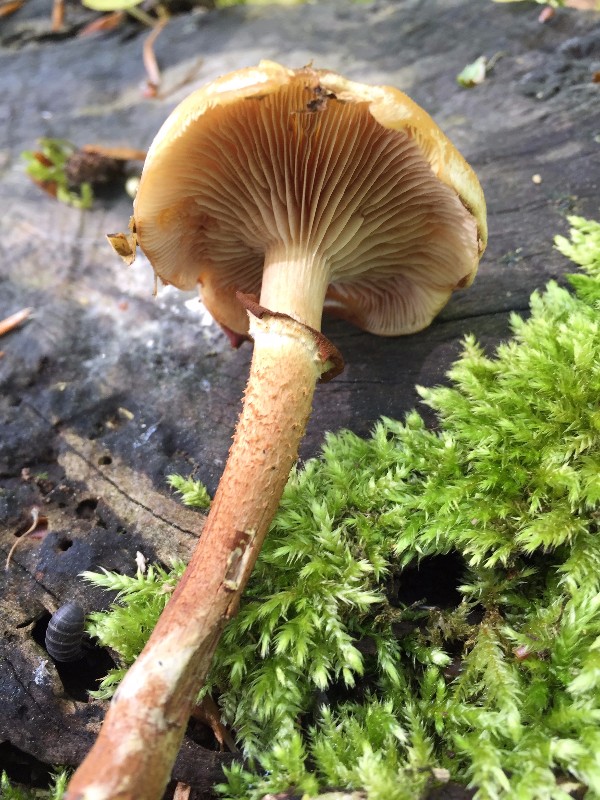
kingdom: Fungi
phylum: Basidiomycota
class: Agaricomycetes
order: Agaricales
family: Strophariaceae
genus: Kuehneromyces
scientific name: Kuehneromyces mutabilis
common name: foranderlig skælhat
